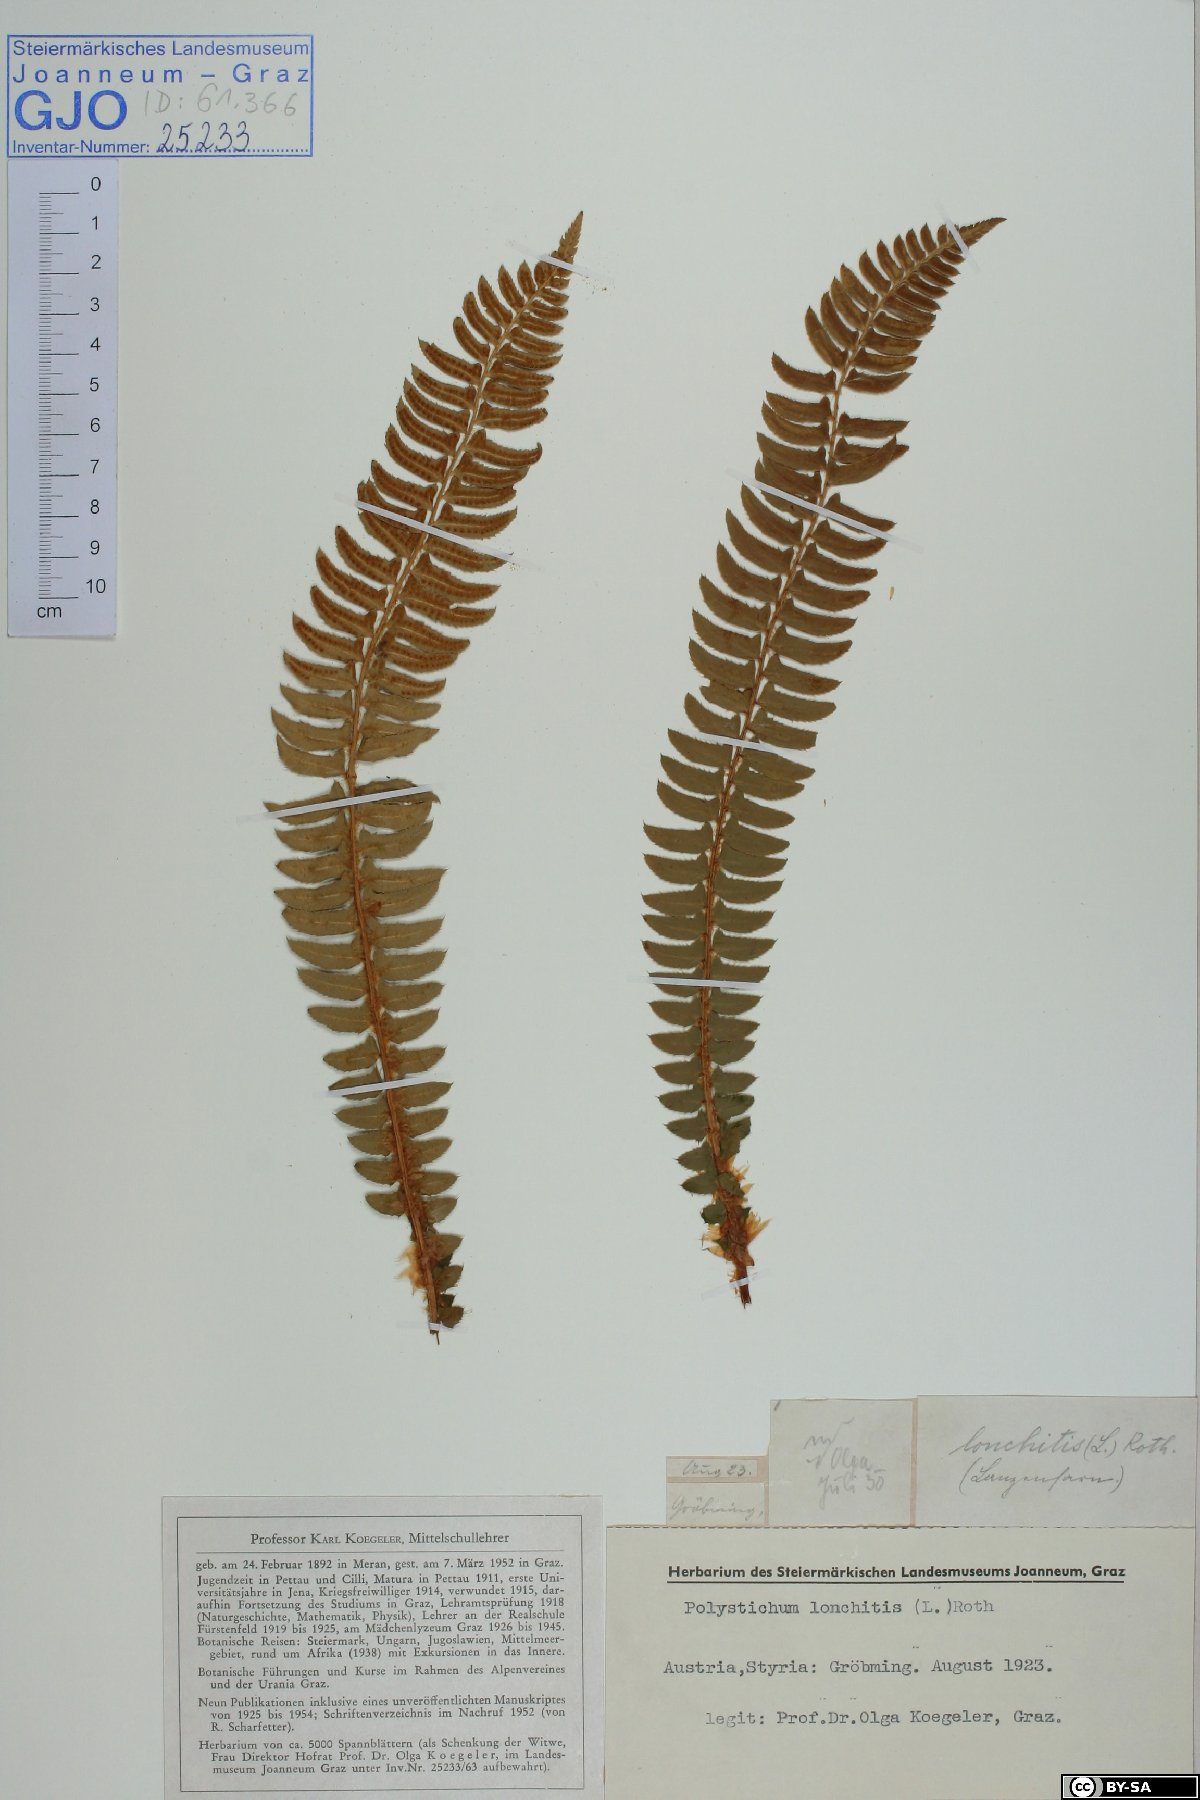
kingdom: Plantae
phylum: Tracheophyta
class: Polypodiopsida
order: Polypodiales
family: Dryopteridaceae
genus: Polystichum
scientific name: Polystichum lonchitis
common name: Holly fern
